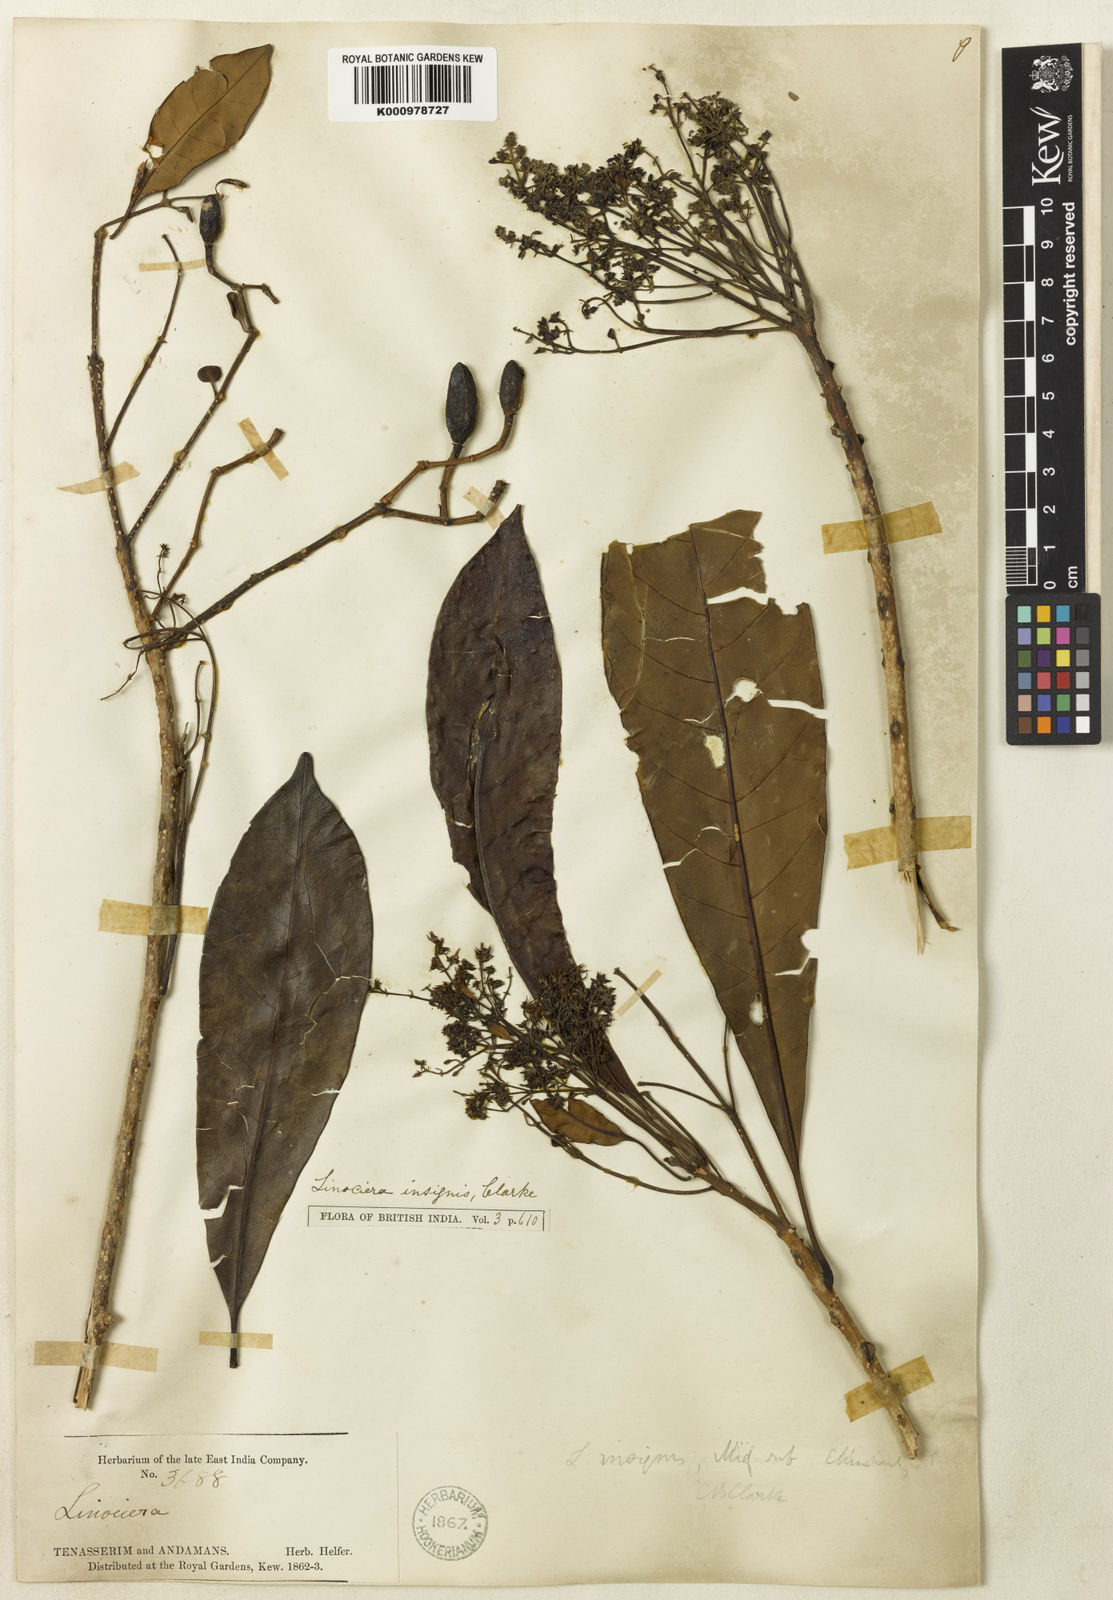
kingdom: Plantae
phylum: Tracheophyta
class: Magnoliopsida
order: Lamiales
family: Oleaceae
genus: Chionanthus
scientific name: Chionanthus macrocarpus
